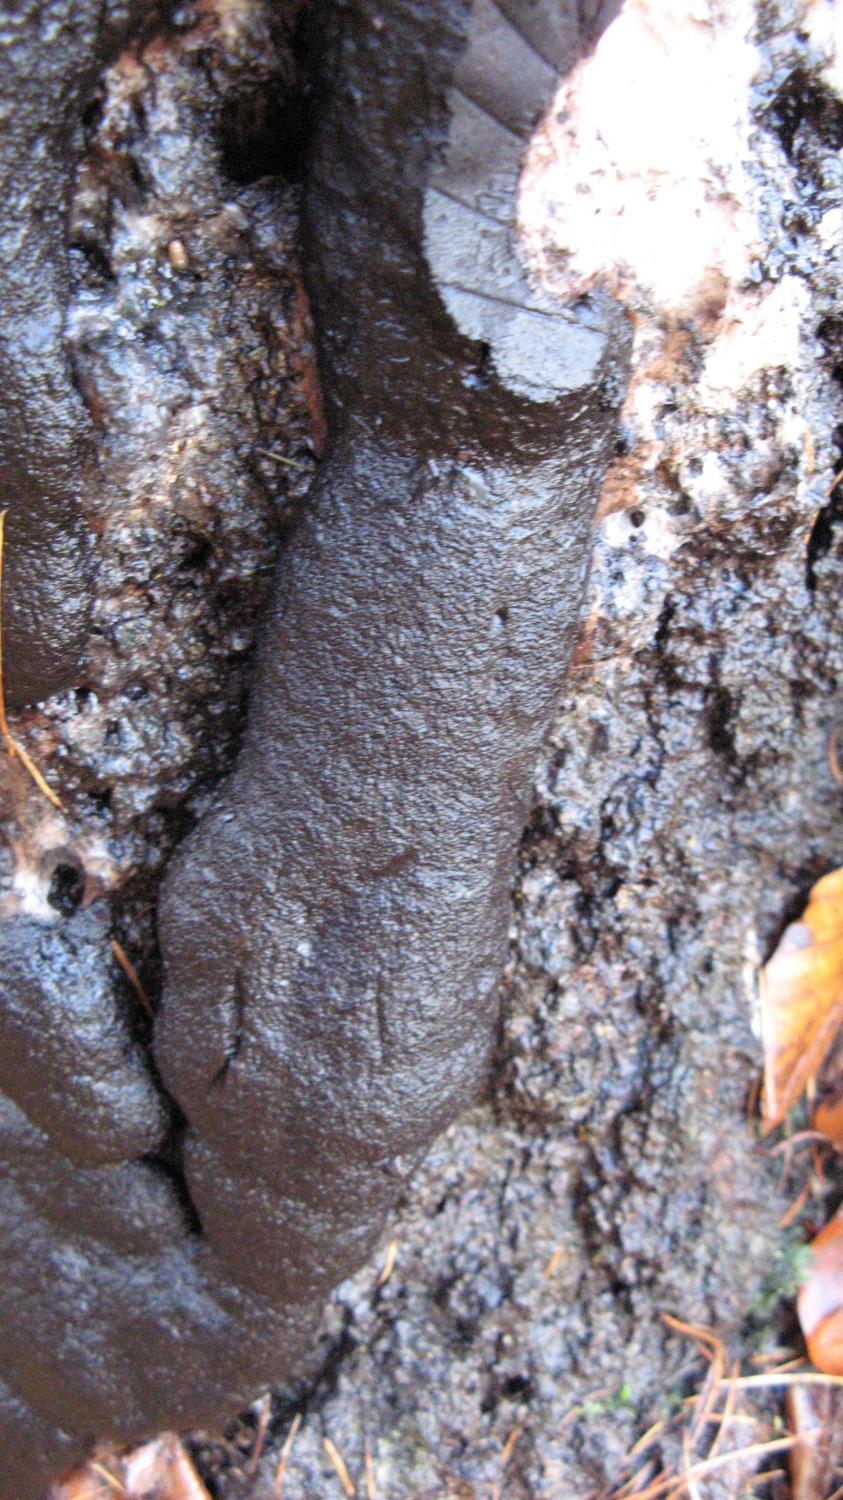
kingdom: Protozoa
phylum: Mycetozoa
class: Myxomycetes
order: Stemonitidales
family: Stemonitidaceae
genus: Brefeldia
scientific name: Brefeldia maxima
